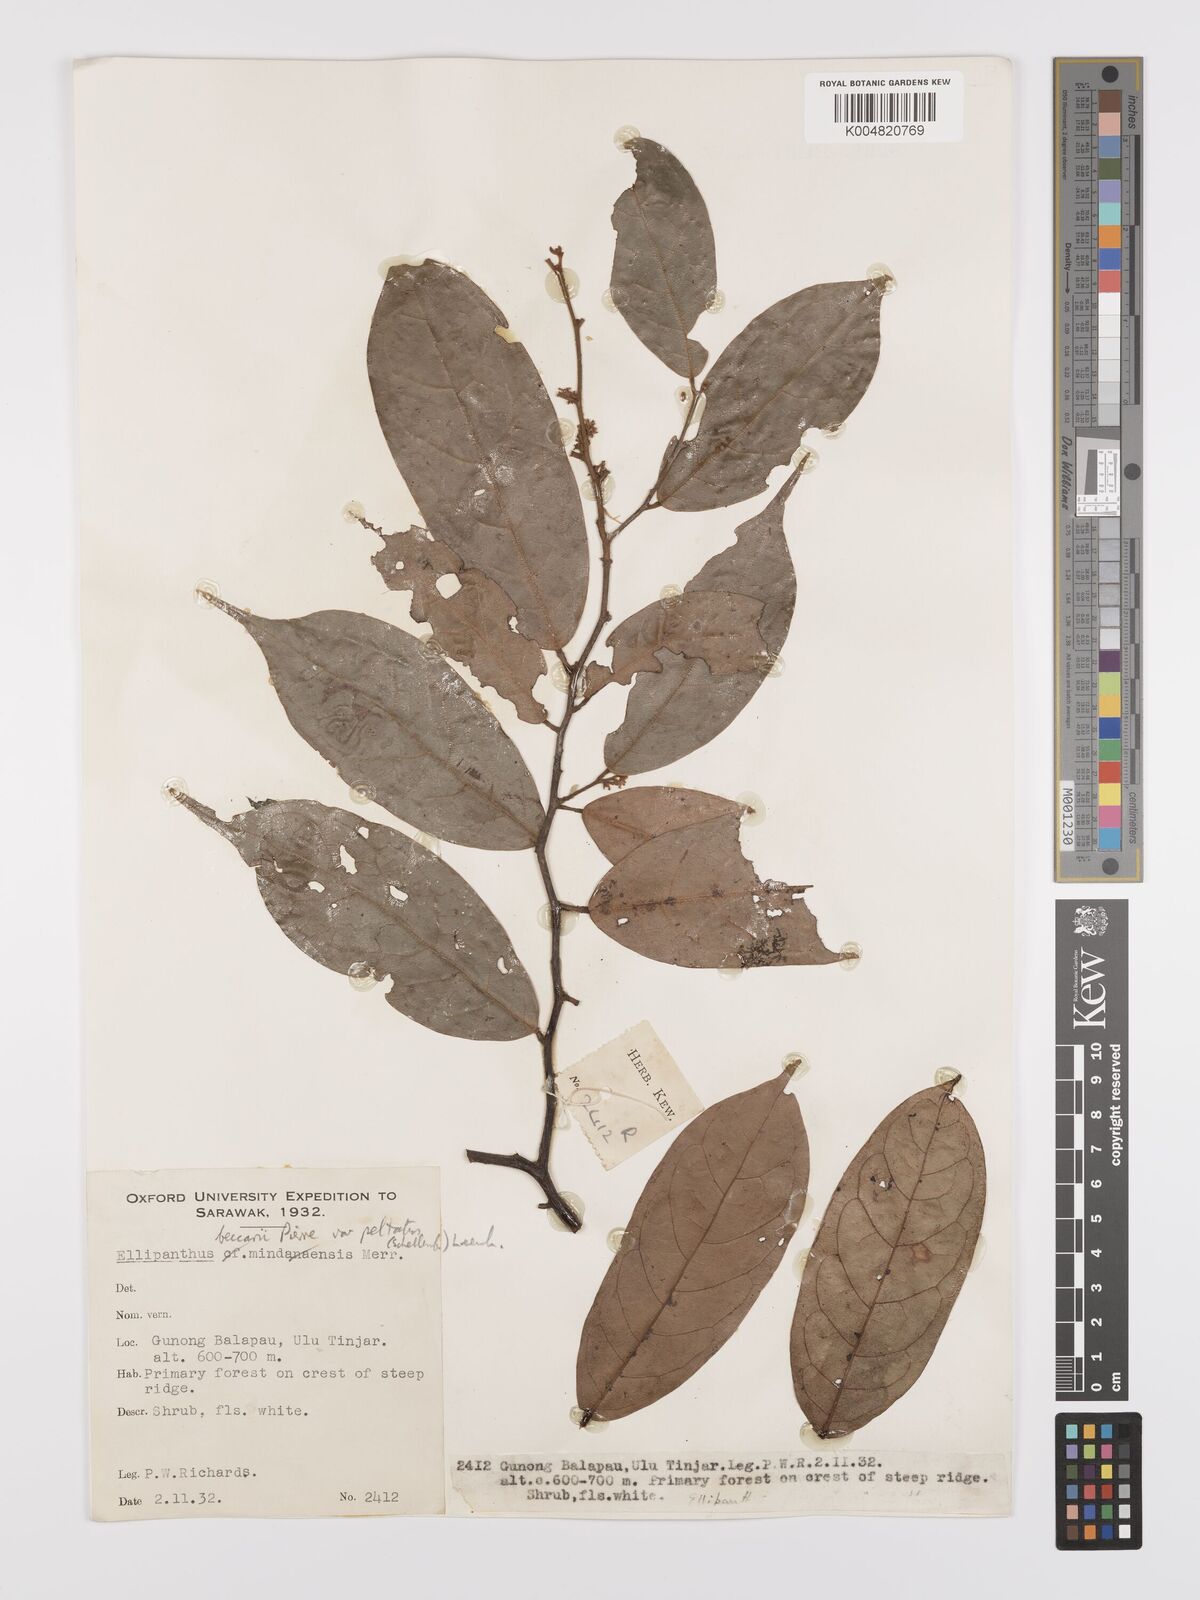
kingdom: Plantae
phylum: Tracheophyta
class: Magnoliopsida
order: Oxalidales
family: Connaraceae
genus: Ellipanthus
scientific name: Ellipanthus beccarii
